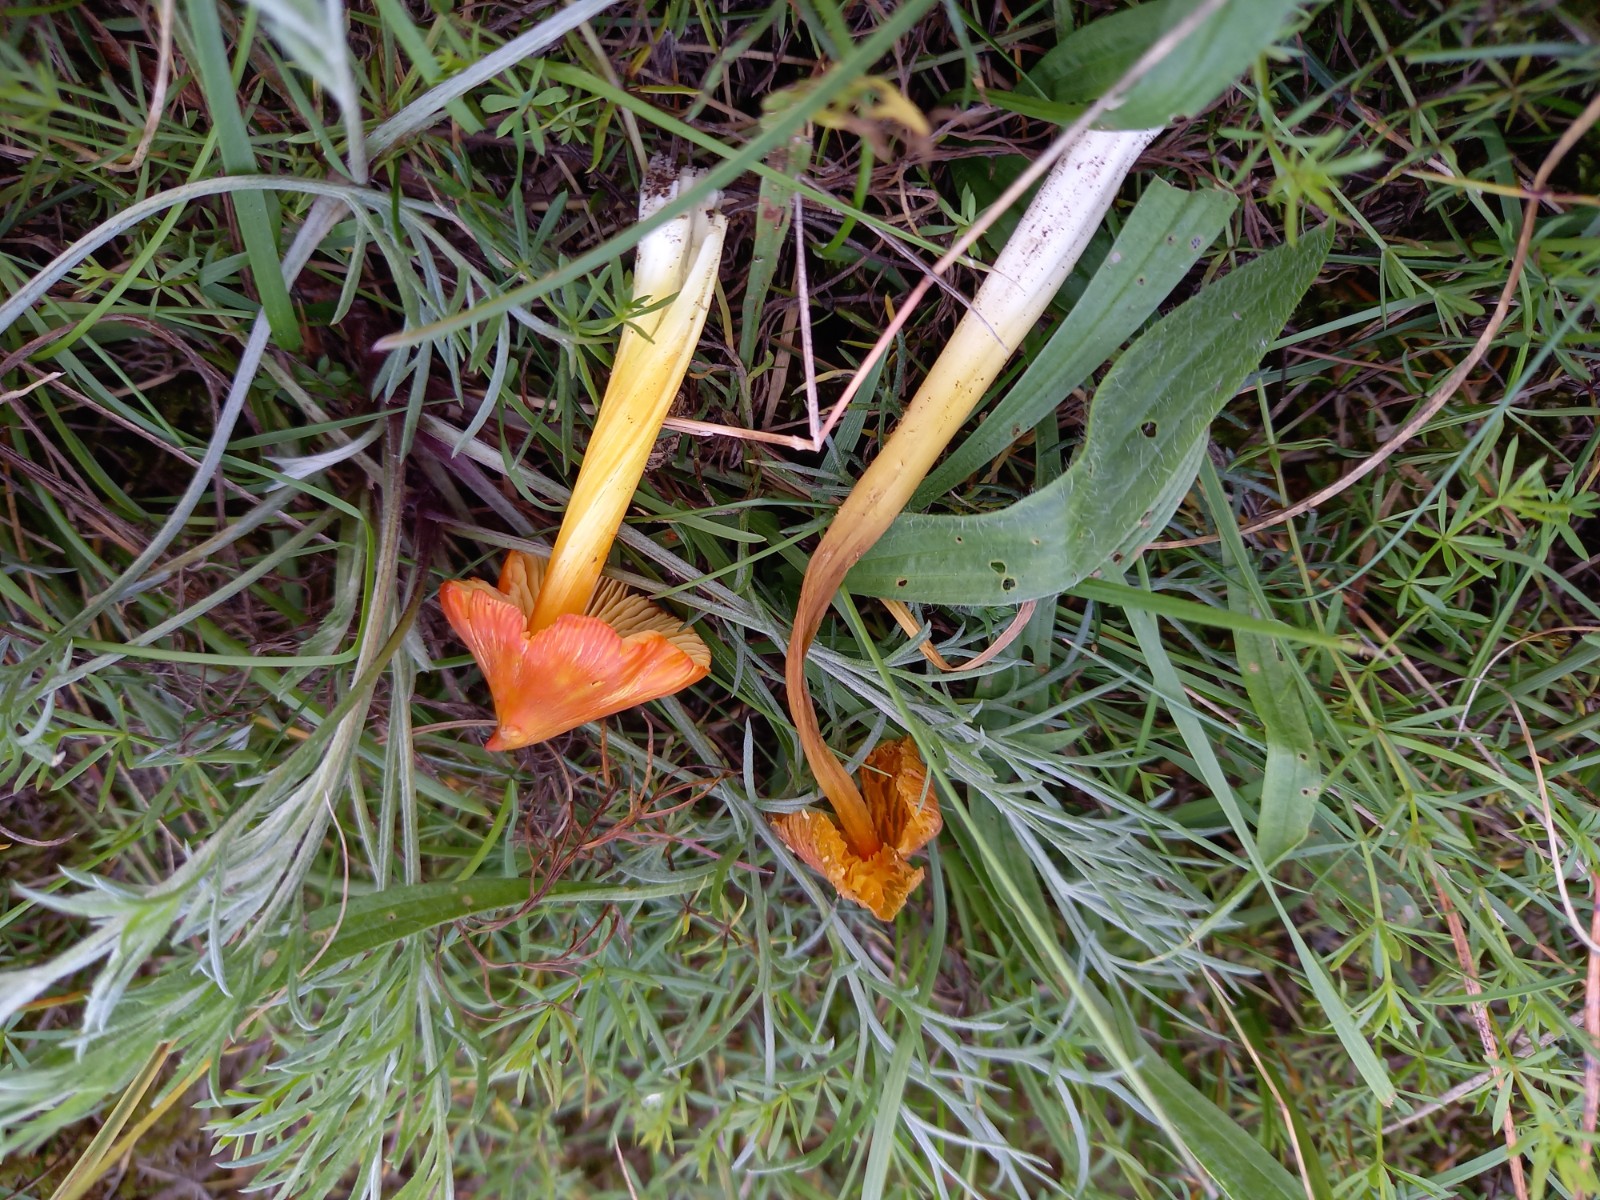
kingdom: Fungi
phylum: Basidiomycota
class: Agaricomycetes
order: Agaricales
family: Hygrophoraceae
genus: Hygrocybe
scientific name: Hygrocybe acutoconica
